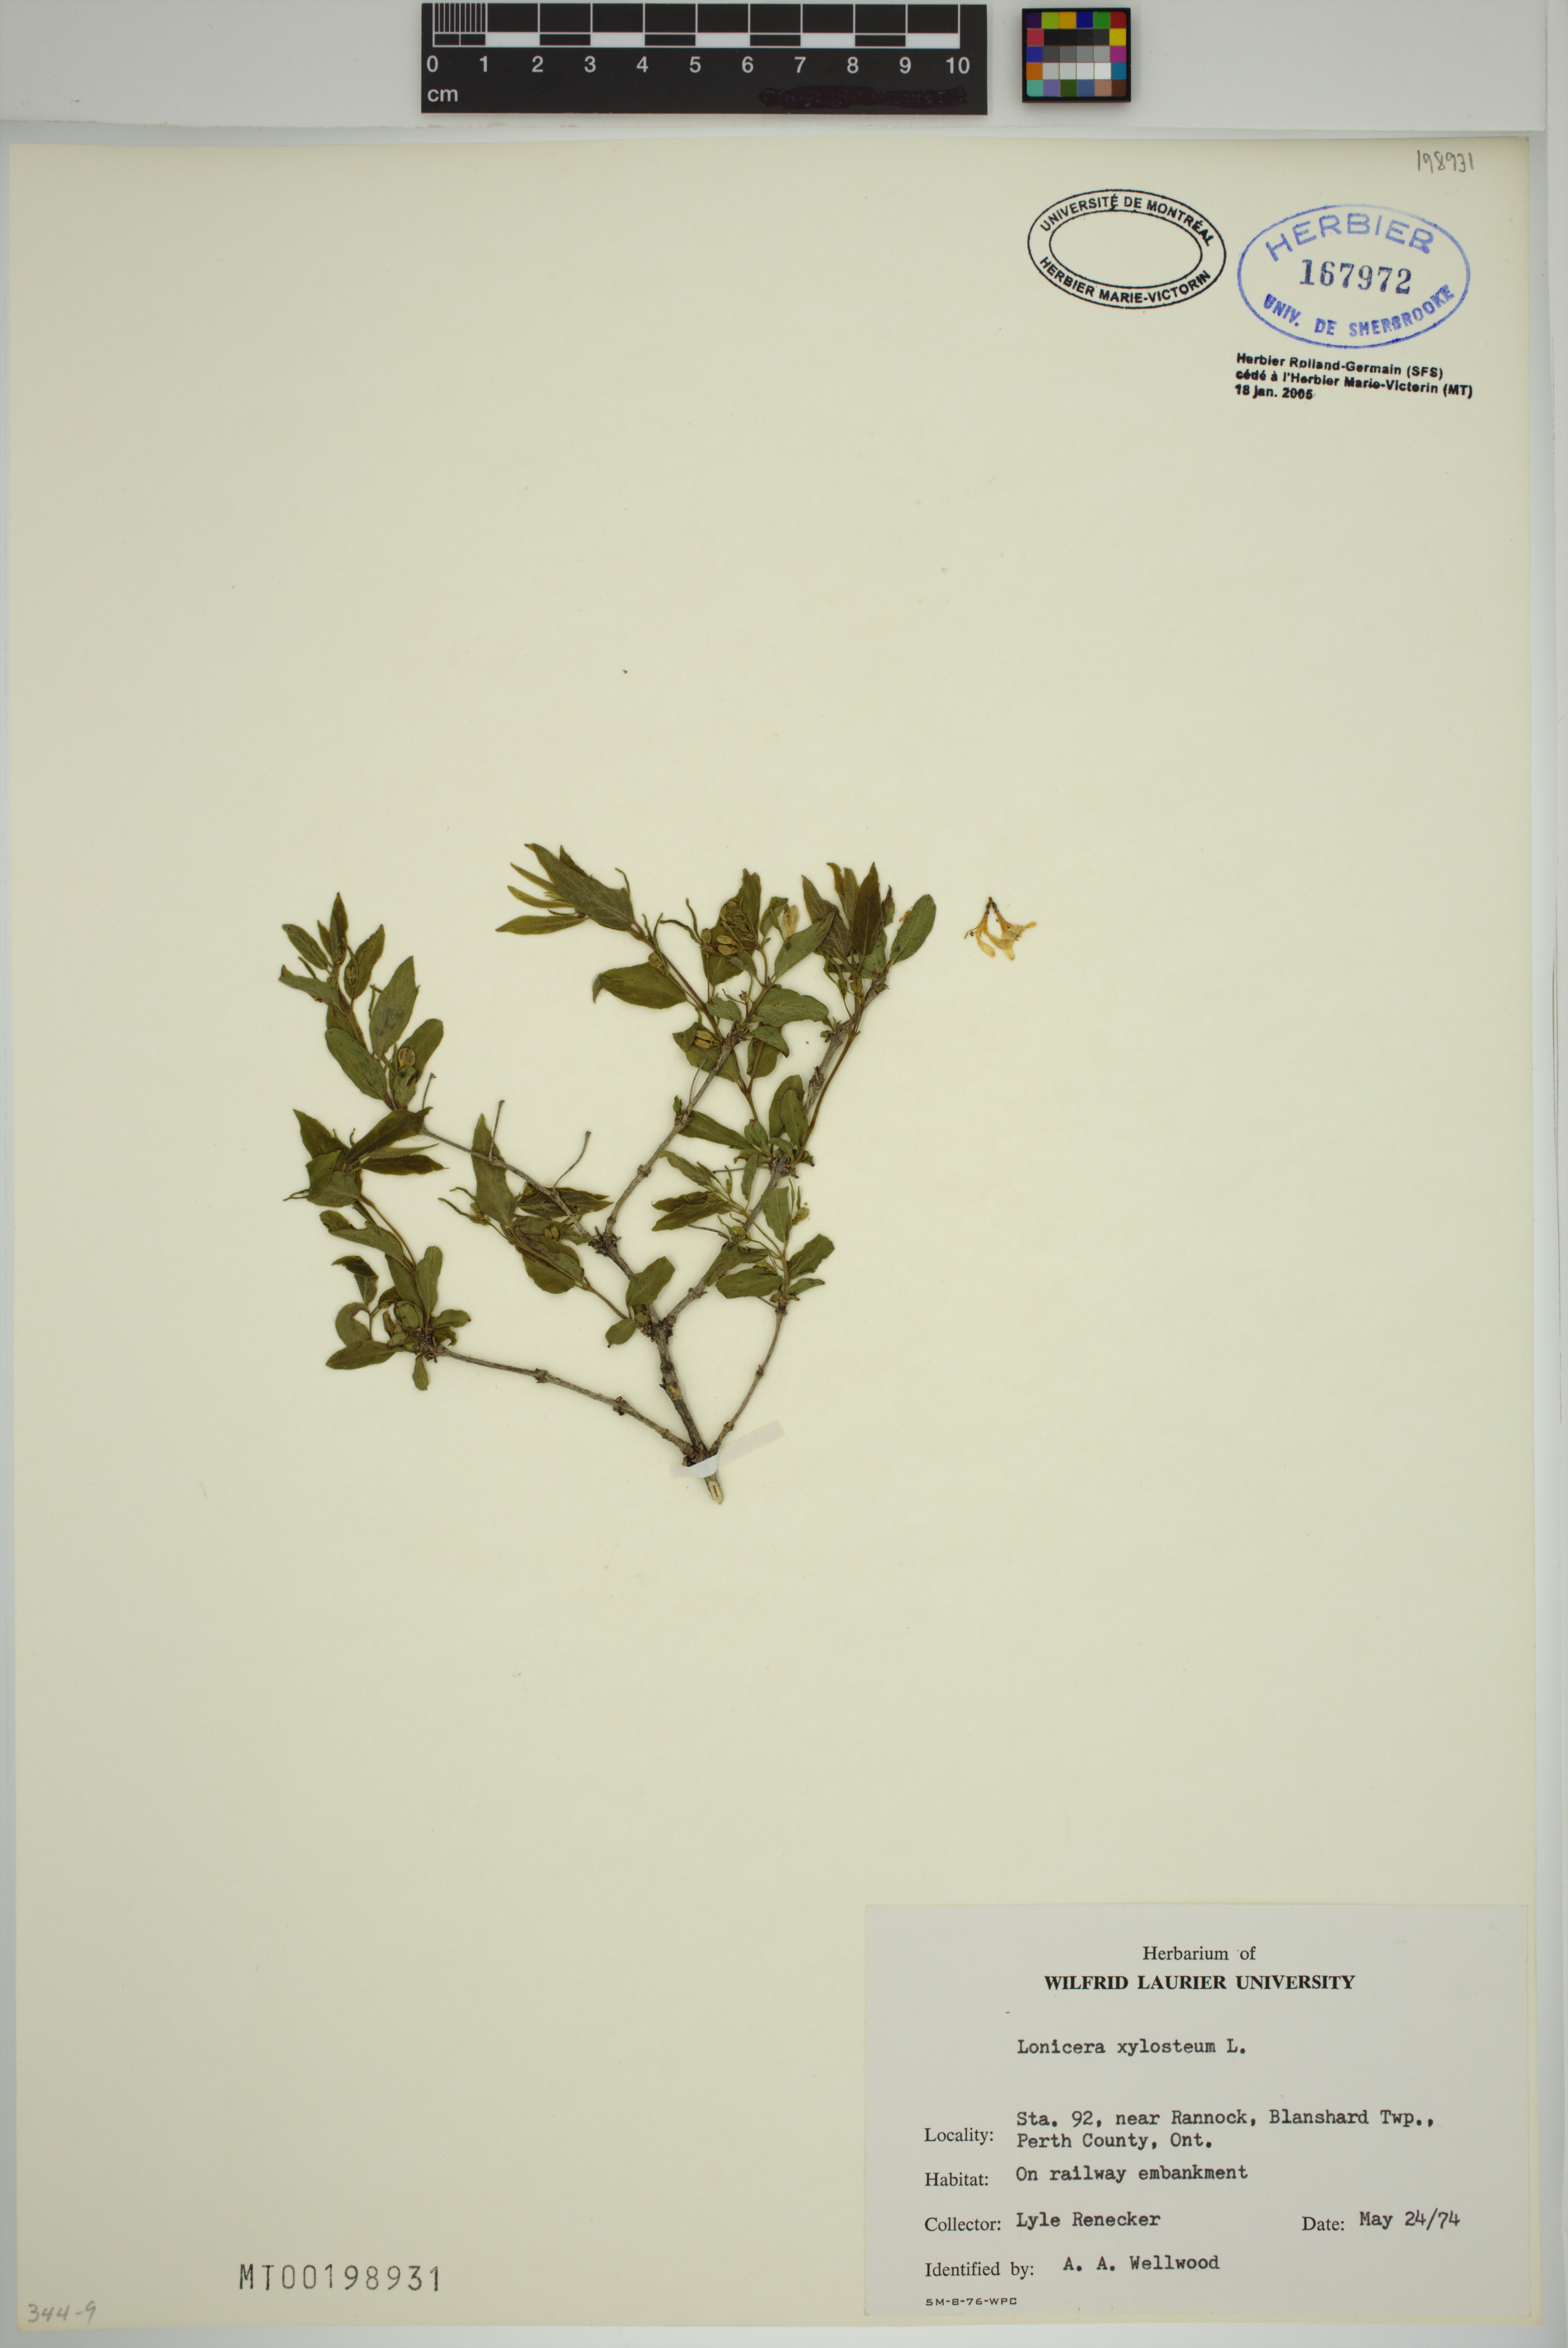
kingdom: Plantae
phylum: Tracheophyta
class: Magnoliopsida
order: Dipsacales
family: Caprifoliaceae
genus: Lonicera
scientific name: Lonicera tatarica
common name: Tatarian honeysuckle
